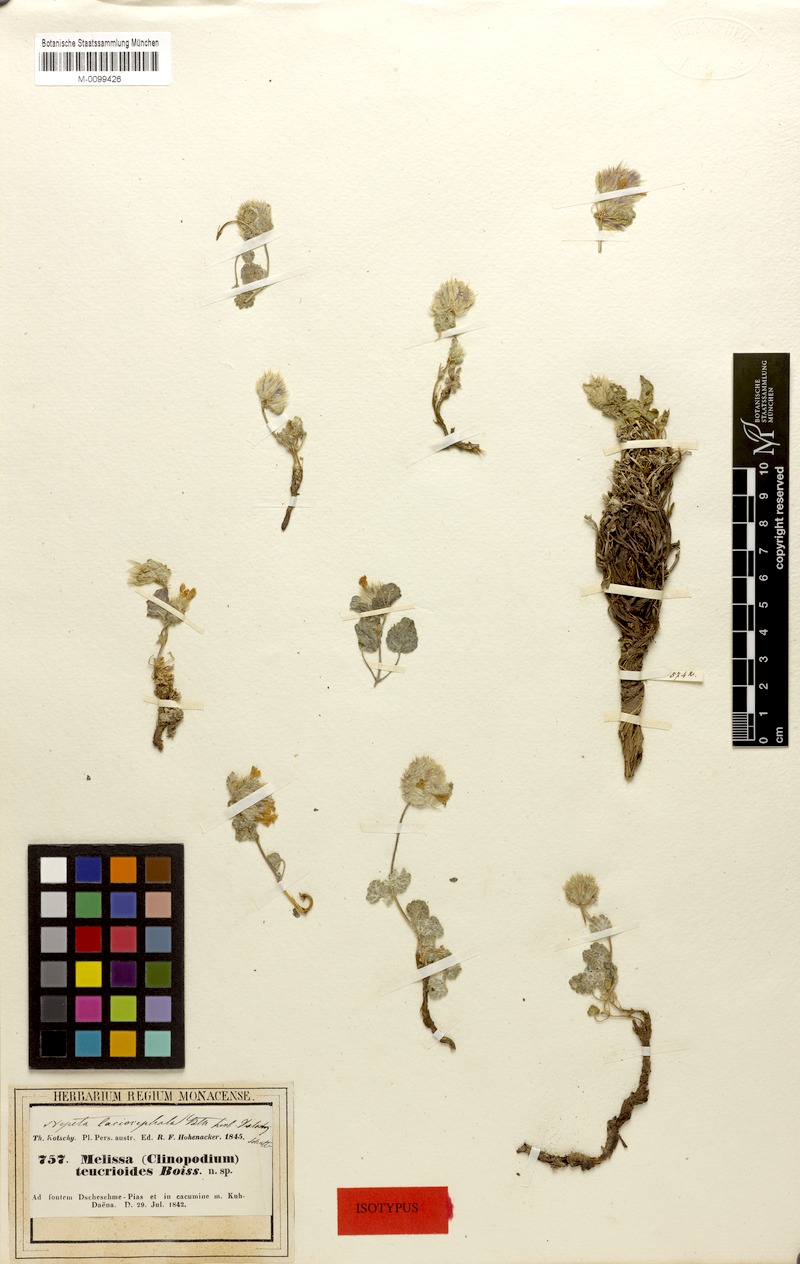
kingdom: Plantae
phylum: Tracheophyta
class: Magnoliopsida
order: Lamiales
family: Lamiaceae
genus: Nepeta
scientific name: Nepeta lasiocephala
